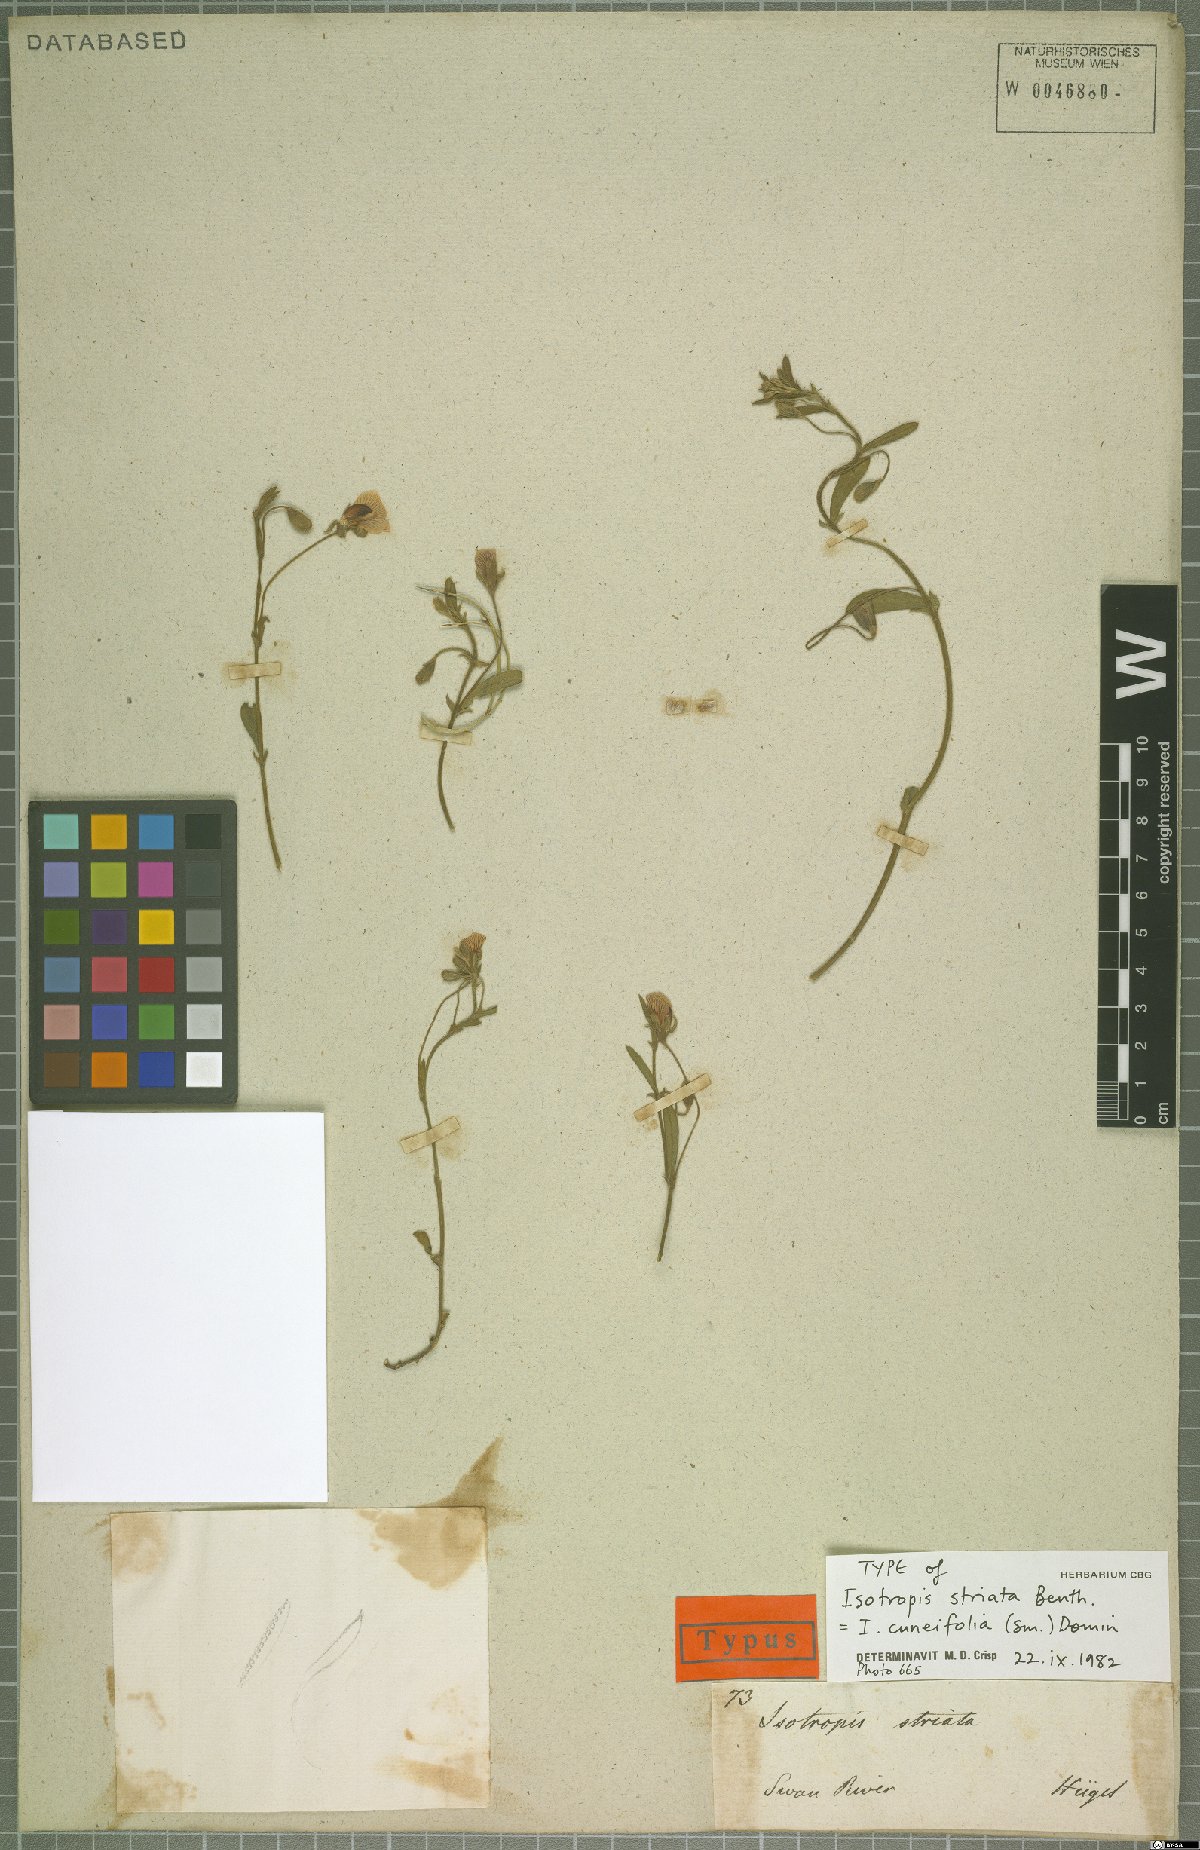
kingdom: Plantae
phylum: Tracheophyta
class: Magnoliopsida
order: Fabales
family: Fabaceae
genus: Isotropis
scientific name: Isotropis cuneifolia
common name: Granny bonnets
